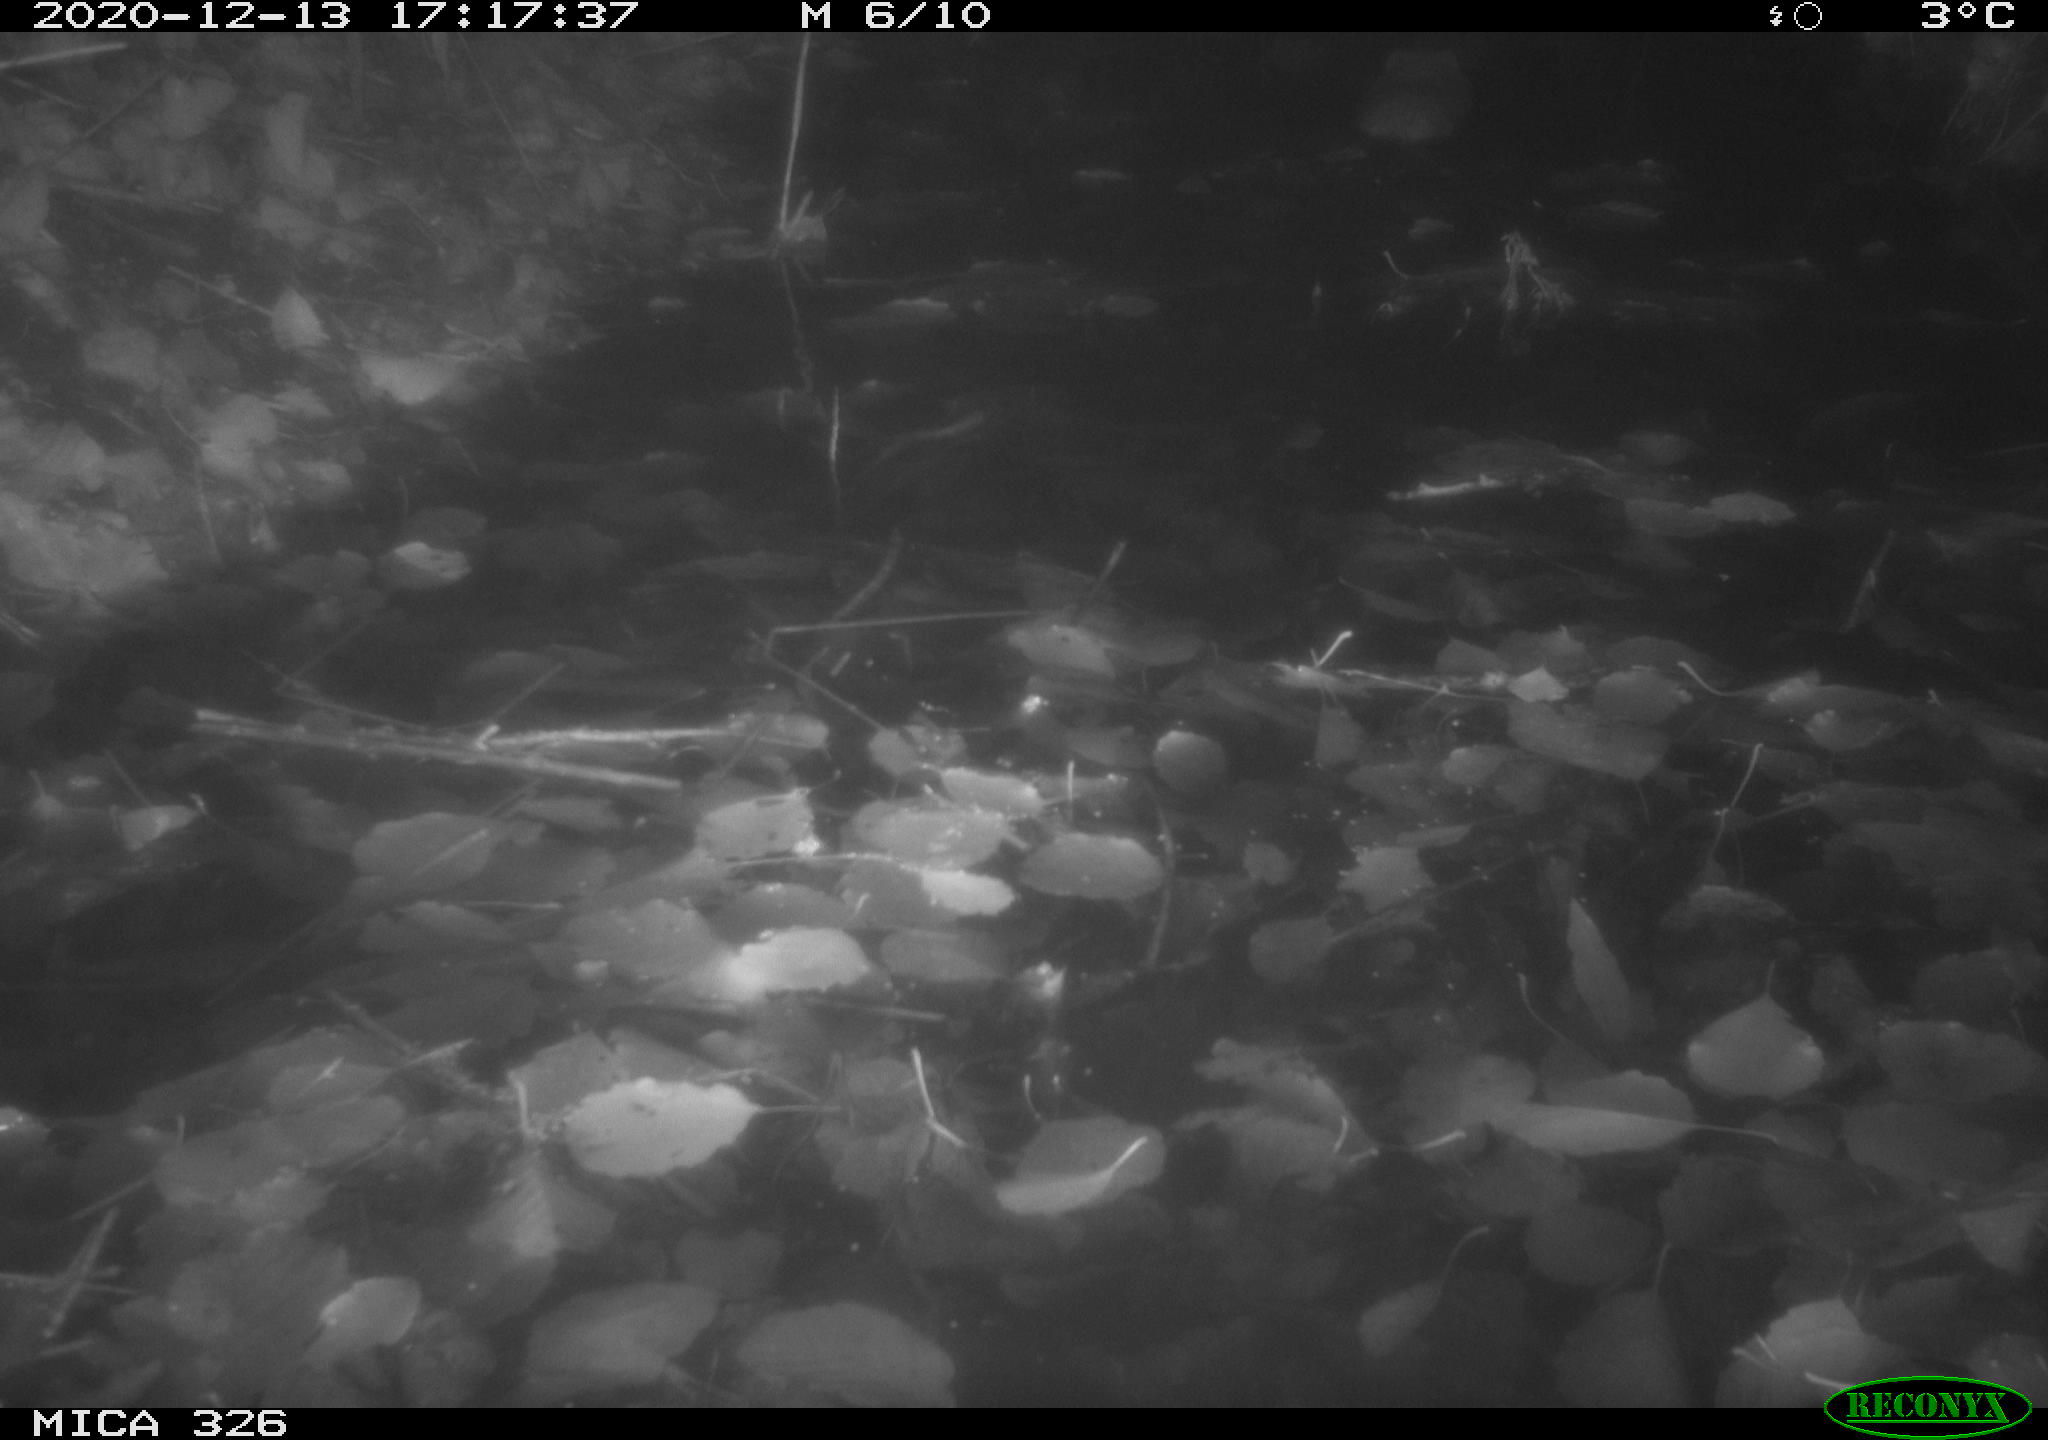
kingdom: Animalia
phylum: Chordata
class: Mammalia
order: Rodentia
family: Cricetidae
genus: Ondatra
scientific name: Ondatra zibethicus
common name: Muskrat
